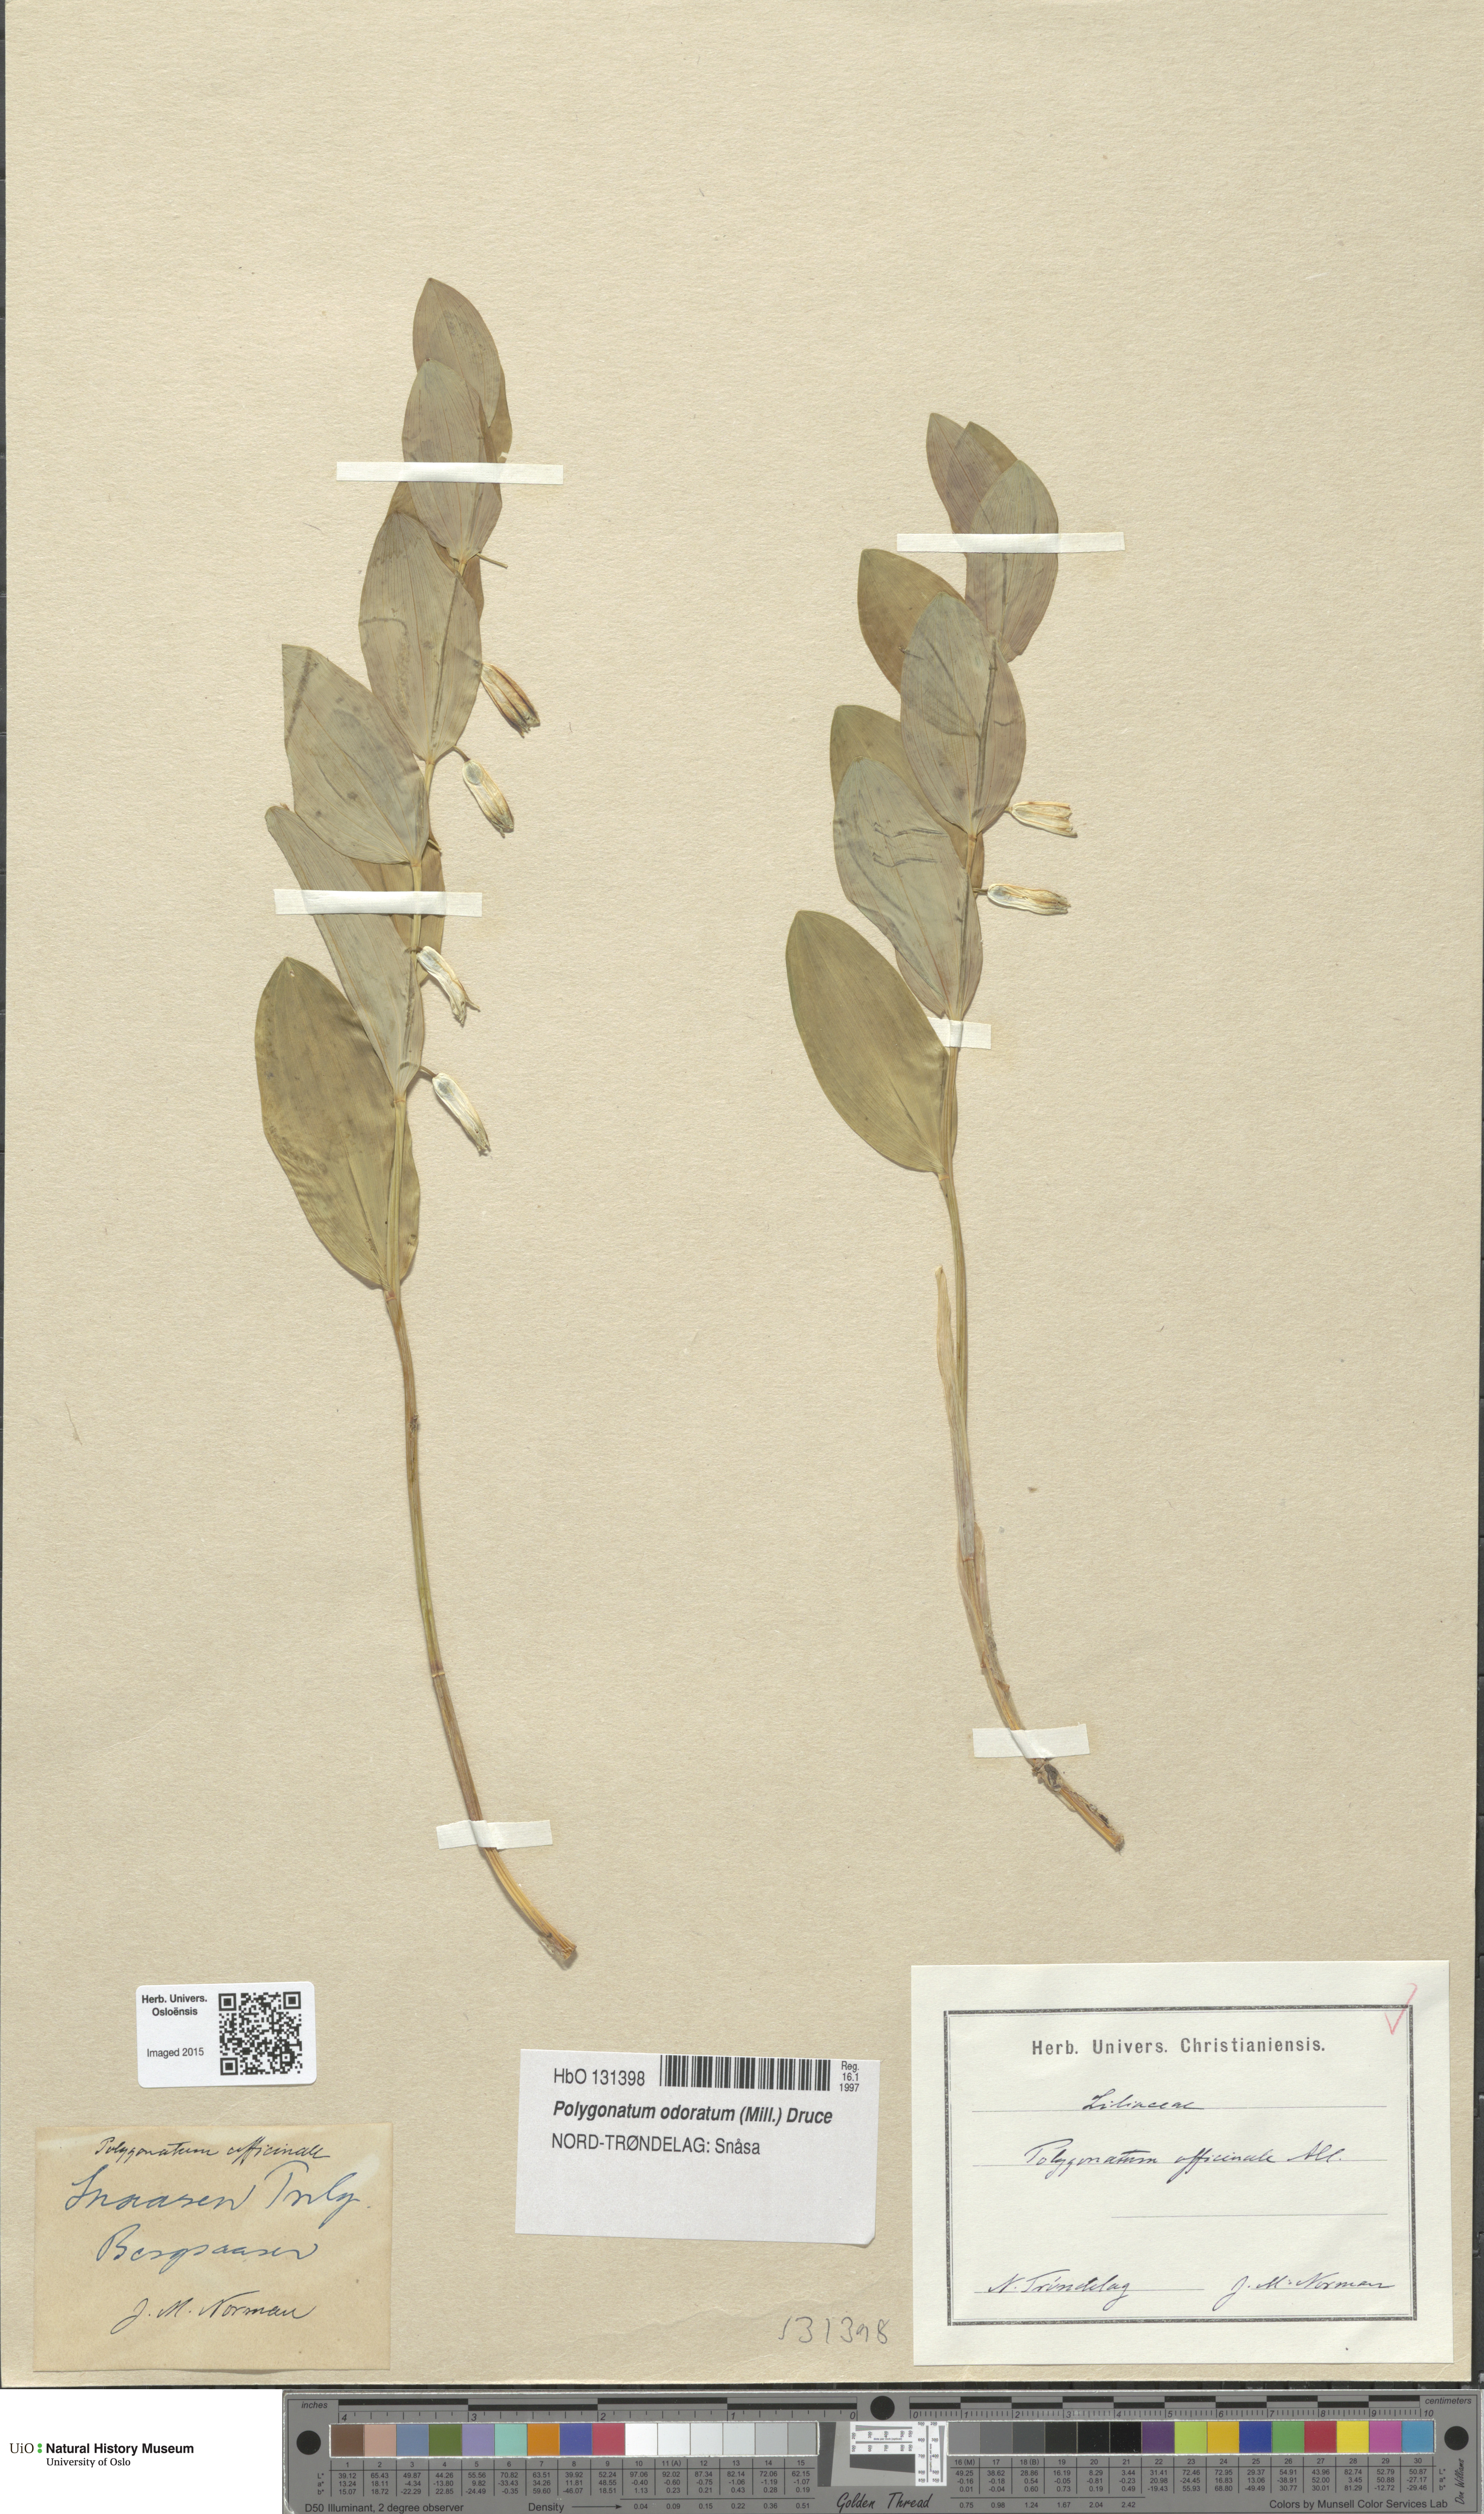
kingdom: Plantae
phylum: Tracheophyta
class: Liliopsida
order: Asparagales
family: Asparagaceae
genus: Polygonatum
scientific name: Polygonatum odoratum
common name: Angular solomon's-seal
